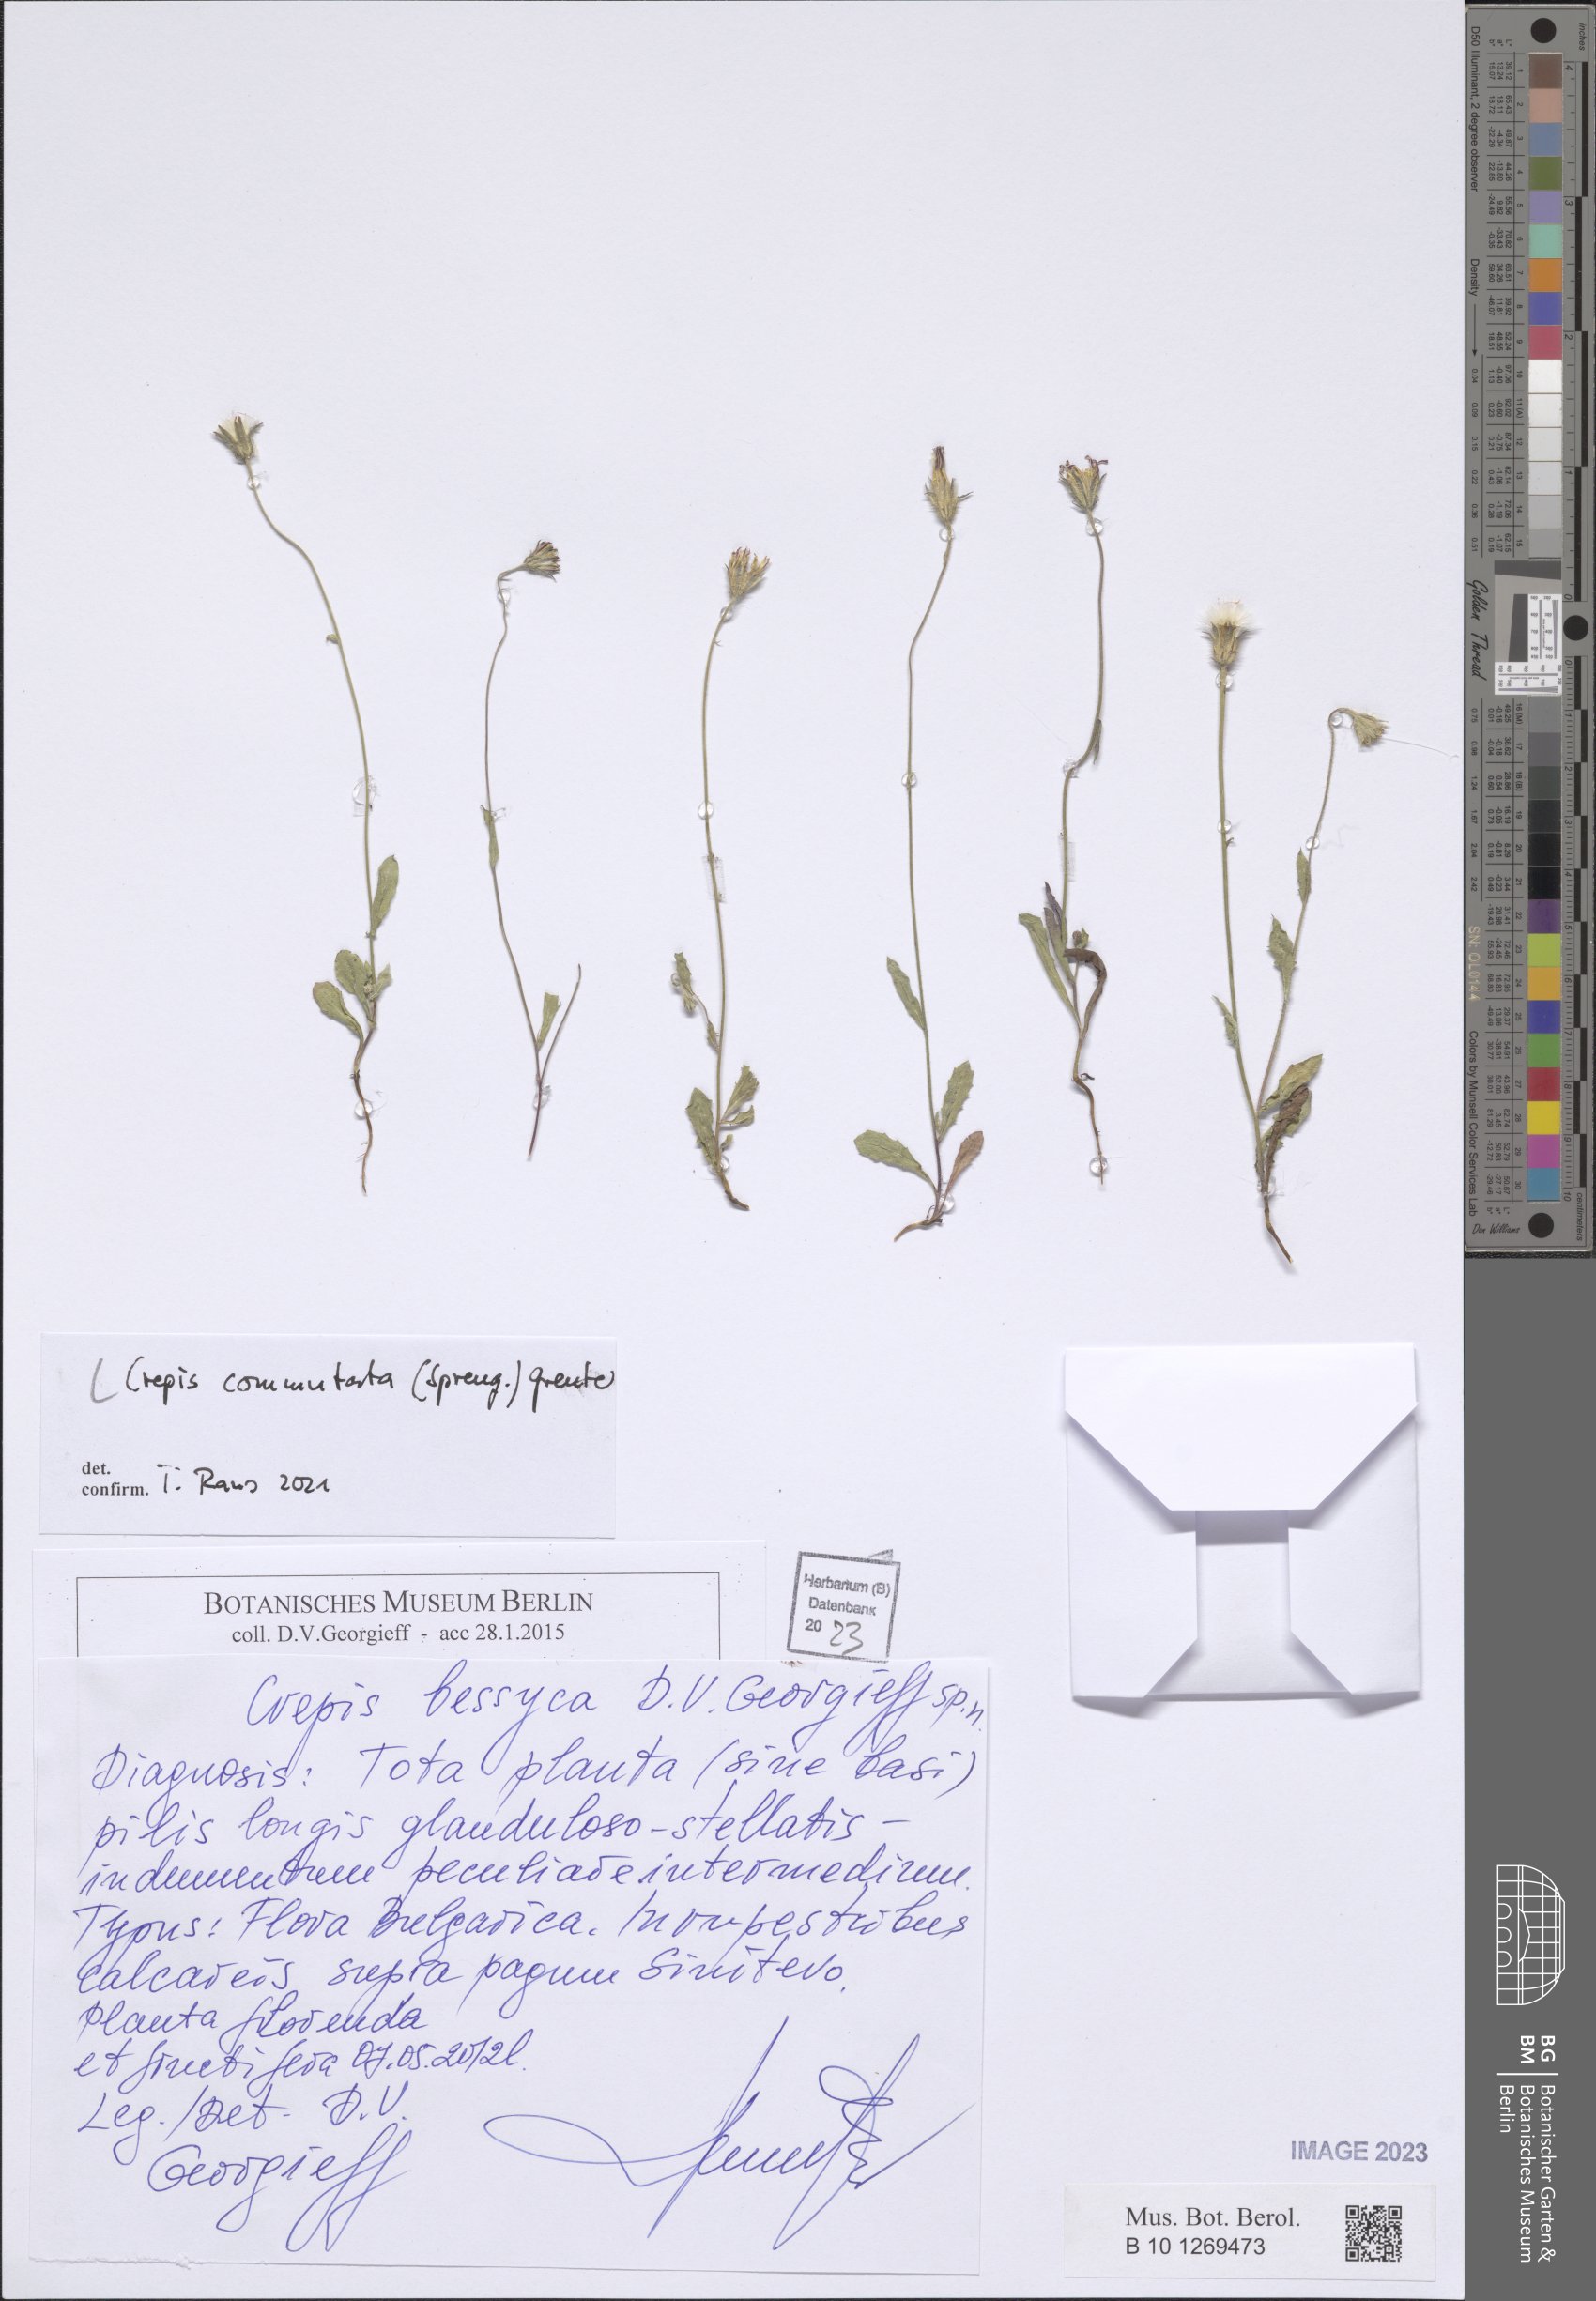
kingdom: Plantae
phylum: Tracheophyta
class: Magnoliopsida
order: Asterales
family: Asteraceae
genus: Crepis
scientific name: Crepis commutata
